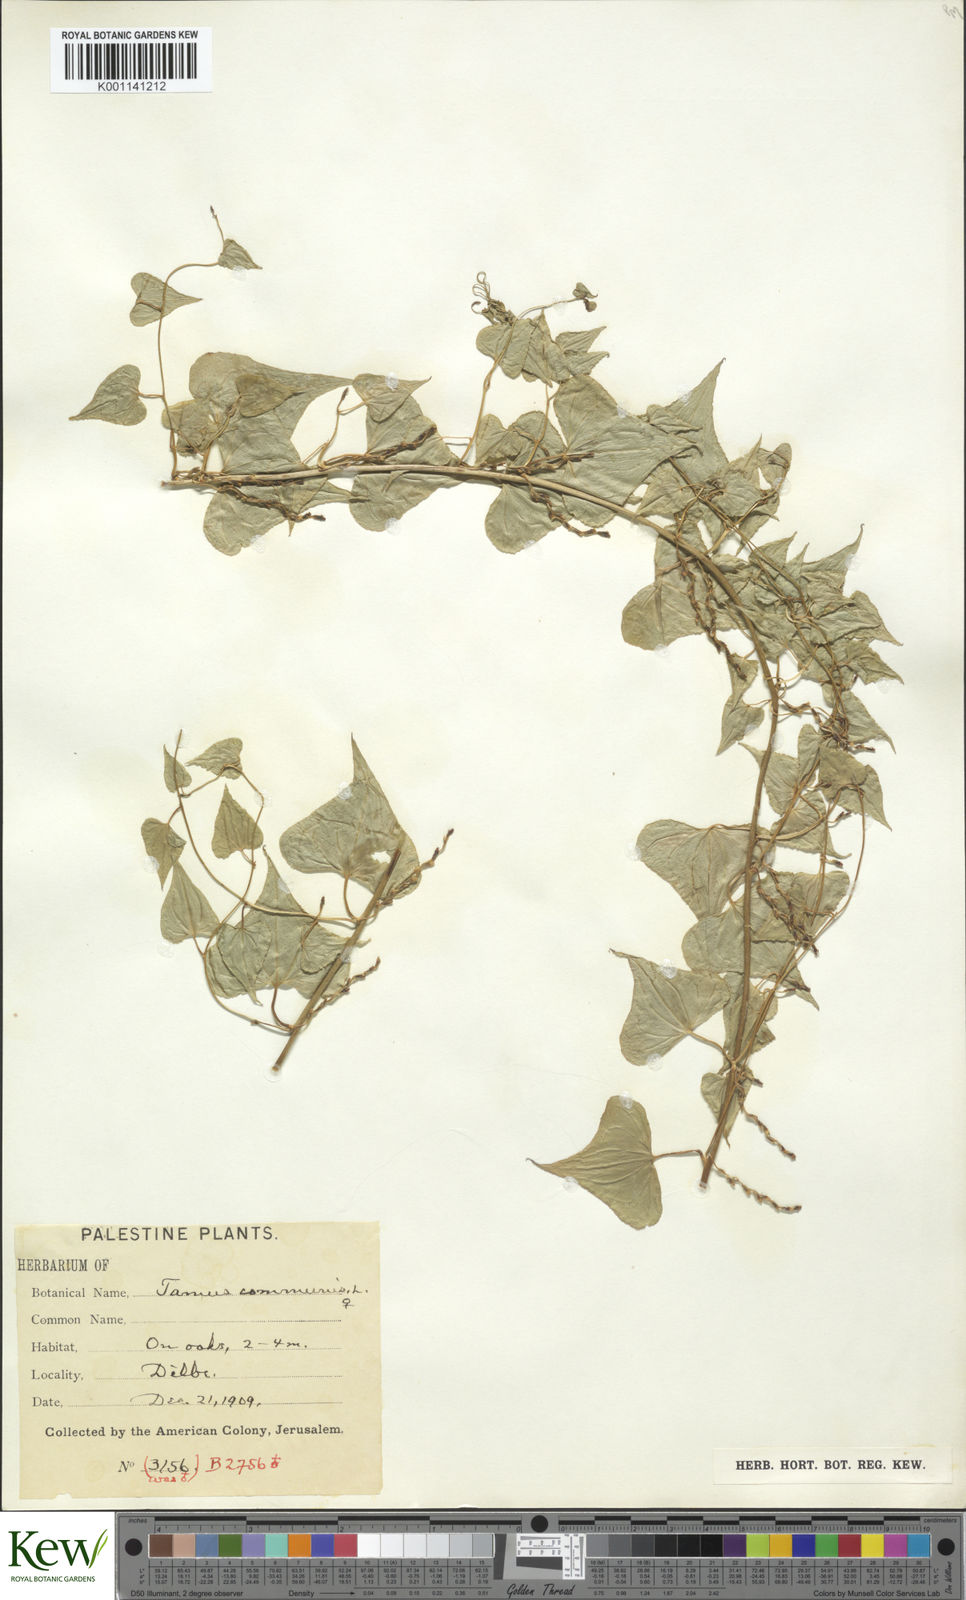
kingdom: Plantae
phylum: Tracheophyta
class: Liliopsida
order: Dioscoreales
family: Dioscoreaceae
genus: Dioscorea
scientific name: Dioscorea communis
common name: Black-bindweed
